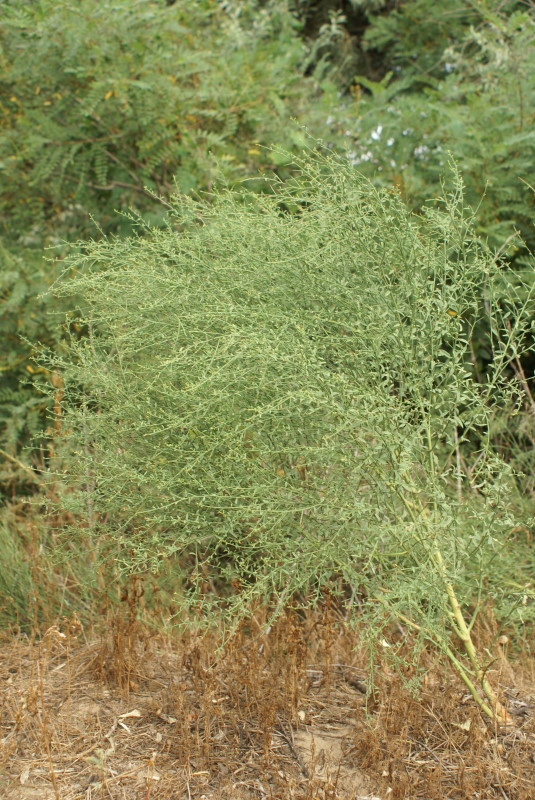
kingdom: Plantae
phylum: Tracheophyta
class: Magnoliopsida
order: Fabales
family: Fabaceae
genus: Alhagi
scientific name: Alhagi pseudalhagi
